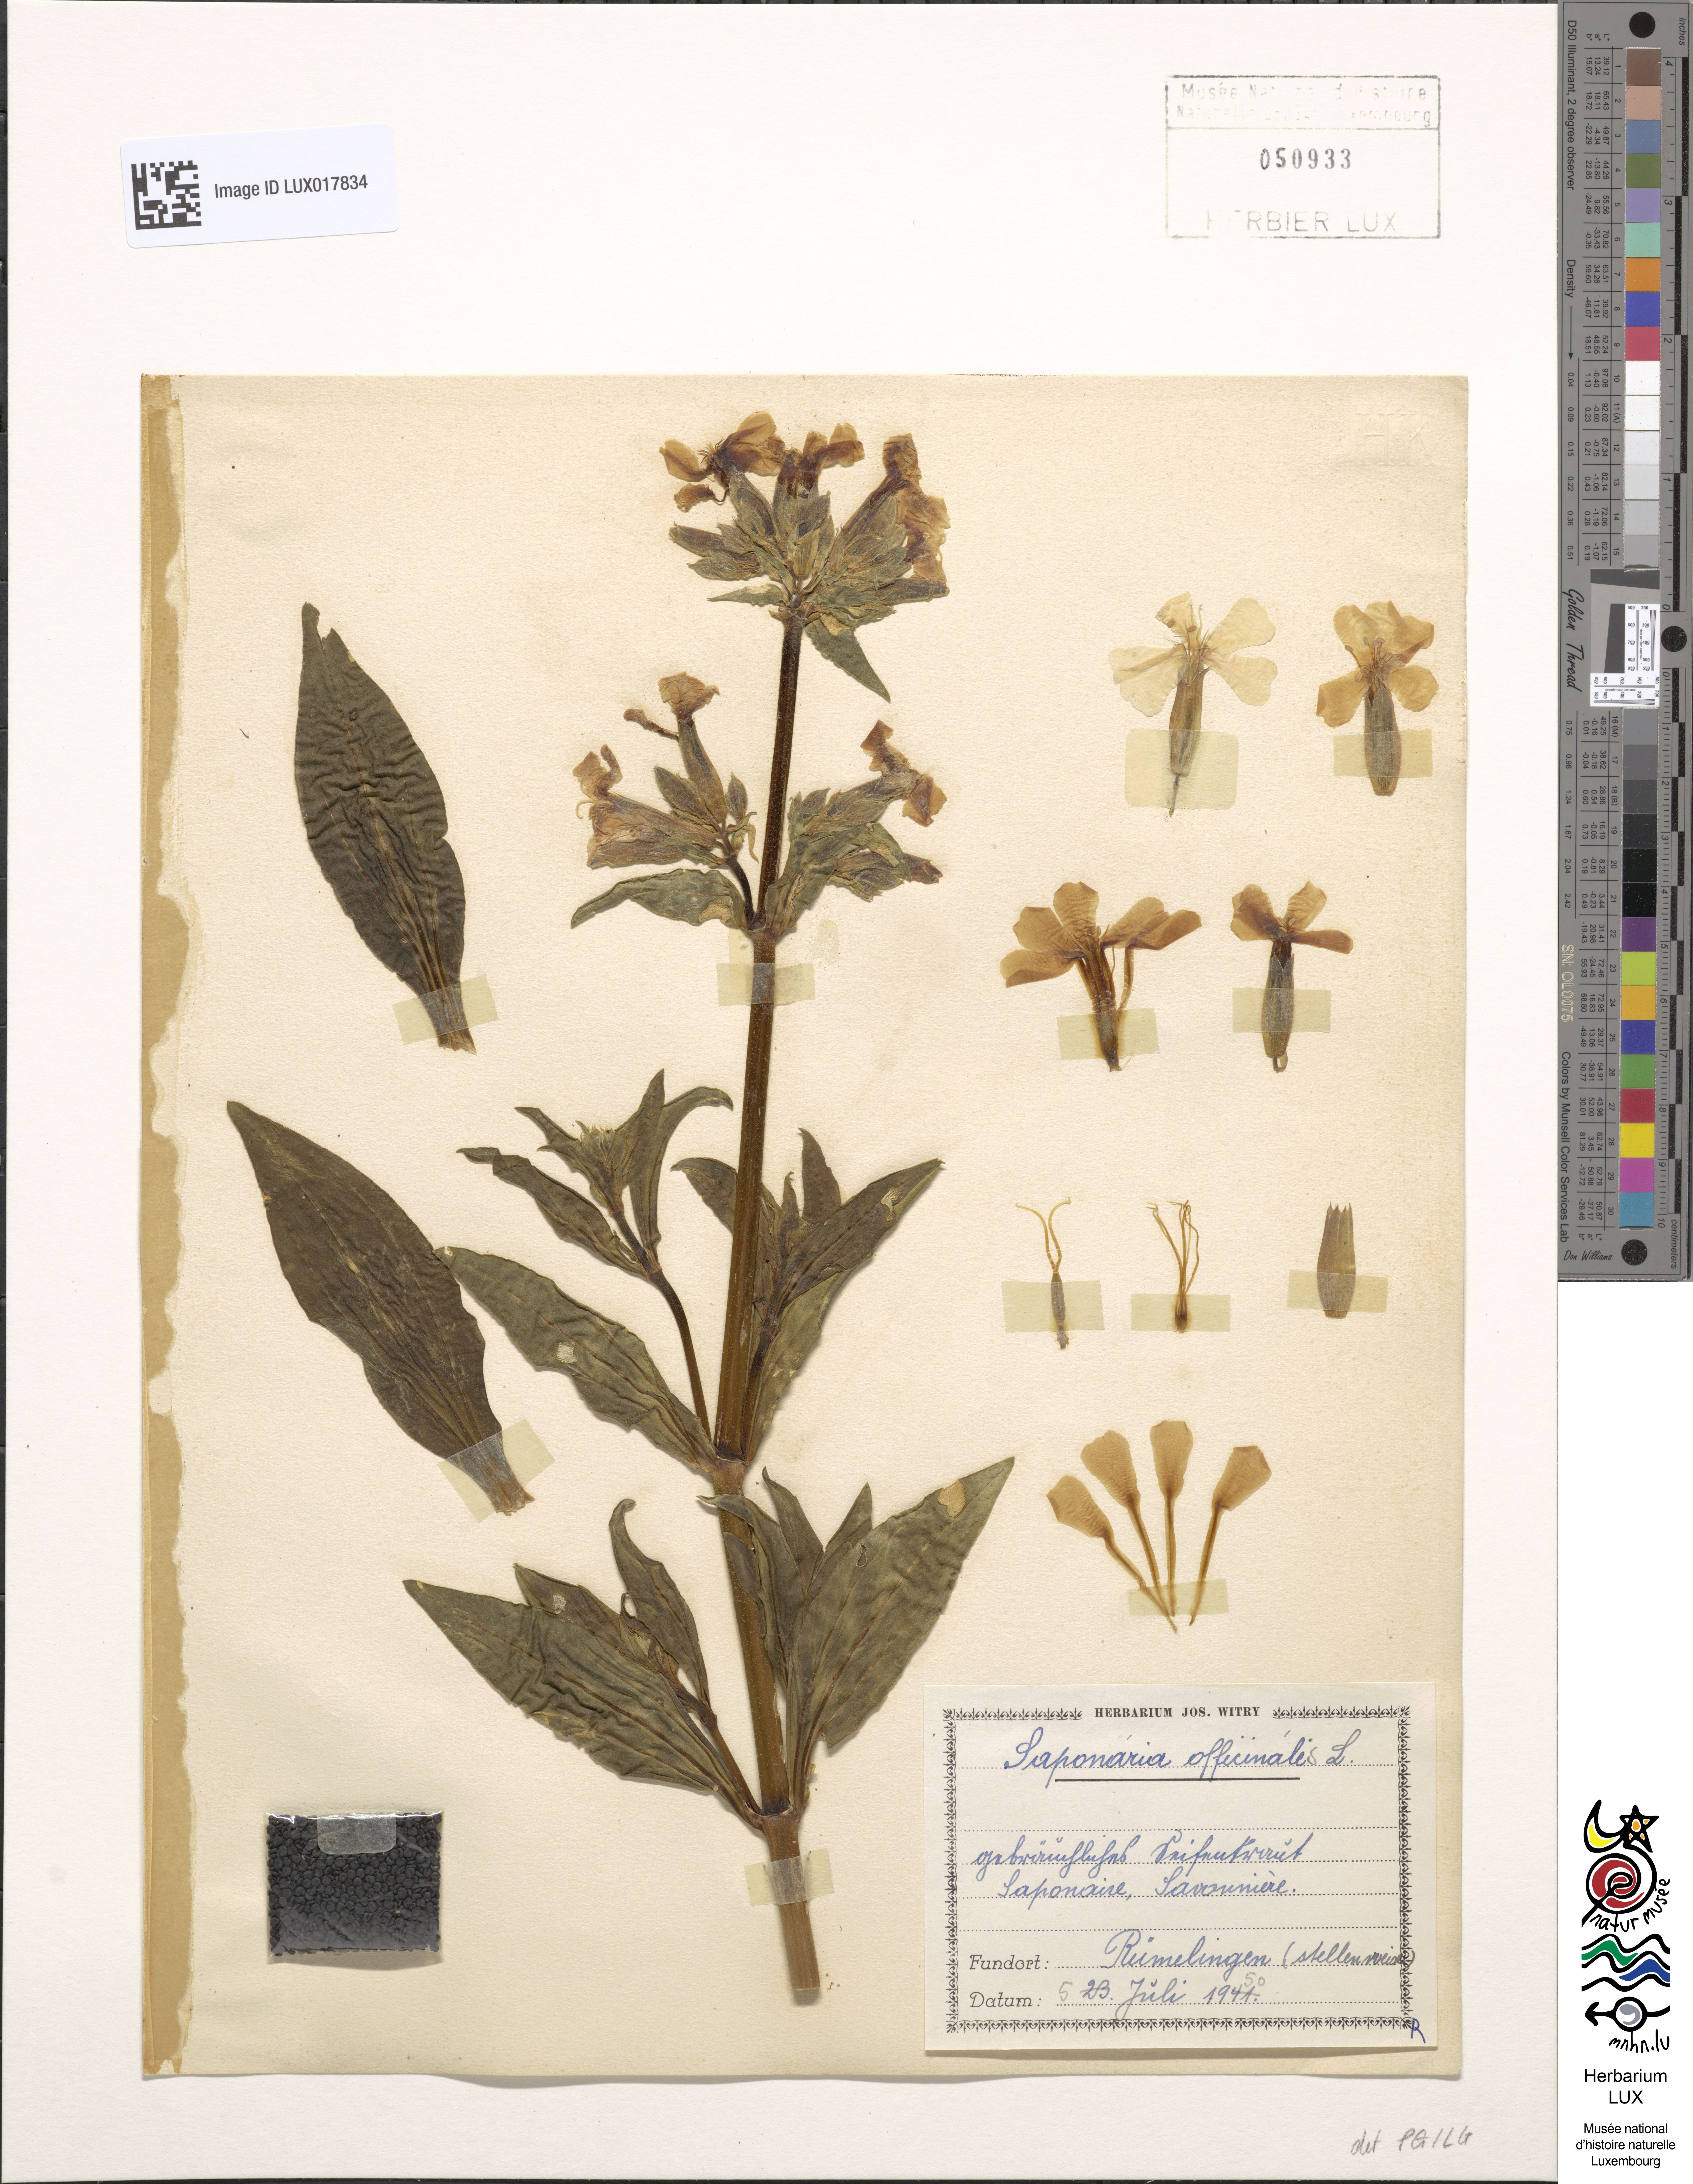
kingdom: Plantae
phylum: Tracheophyta
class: Magnoliopsida
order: Caryophyllales
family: Caryophyllaceae
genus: Saponaria
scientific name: Saponaria officinalis
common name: Soapwort
